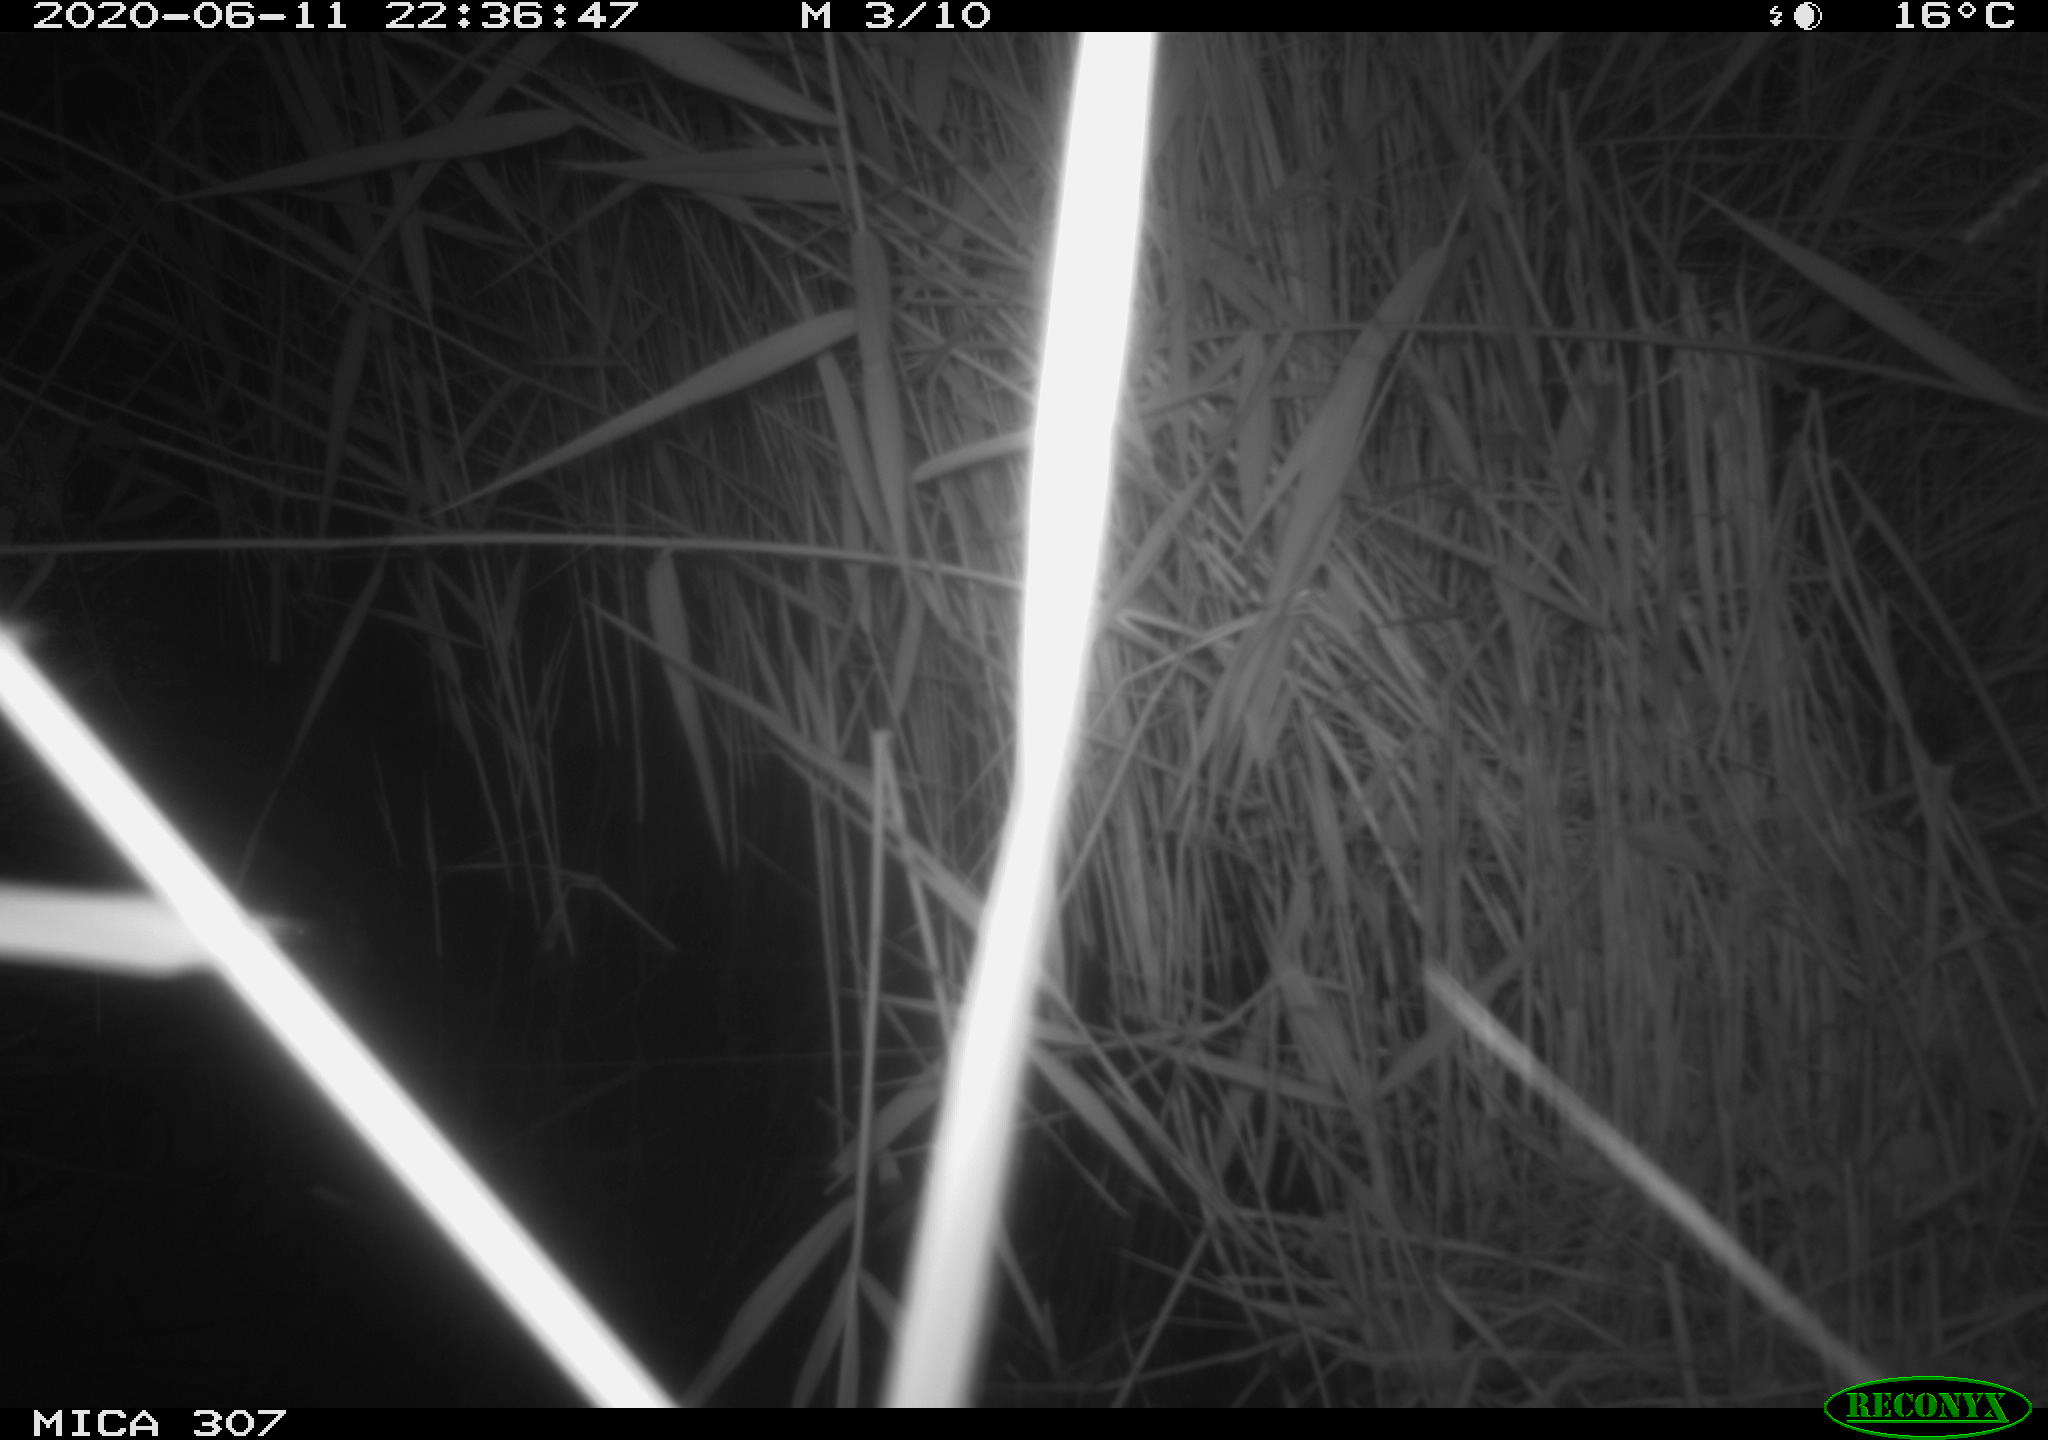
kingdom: Animalia
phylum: Chordata
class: Aves
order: Anseriformes
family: Anatidae
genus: Anas
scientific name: Anas platyrhynchos
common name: Mallard
